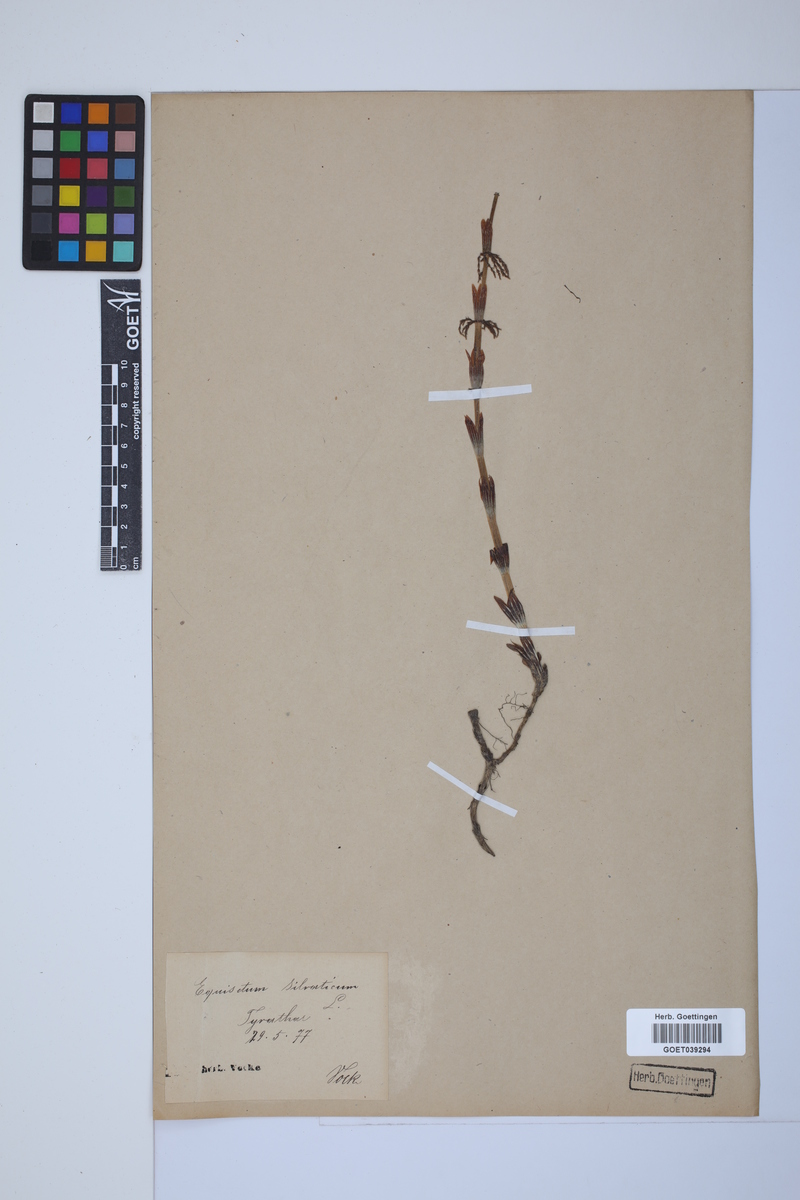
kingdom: Plantae
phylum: Tracheophyta
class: Polypodiopsida
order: Equisetales
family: Equisetaceae
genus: Equisetum
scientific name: Equisetum sylvaticum
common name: Wood horsetail
